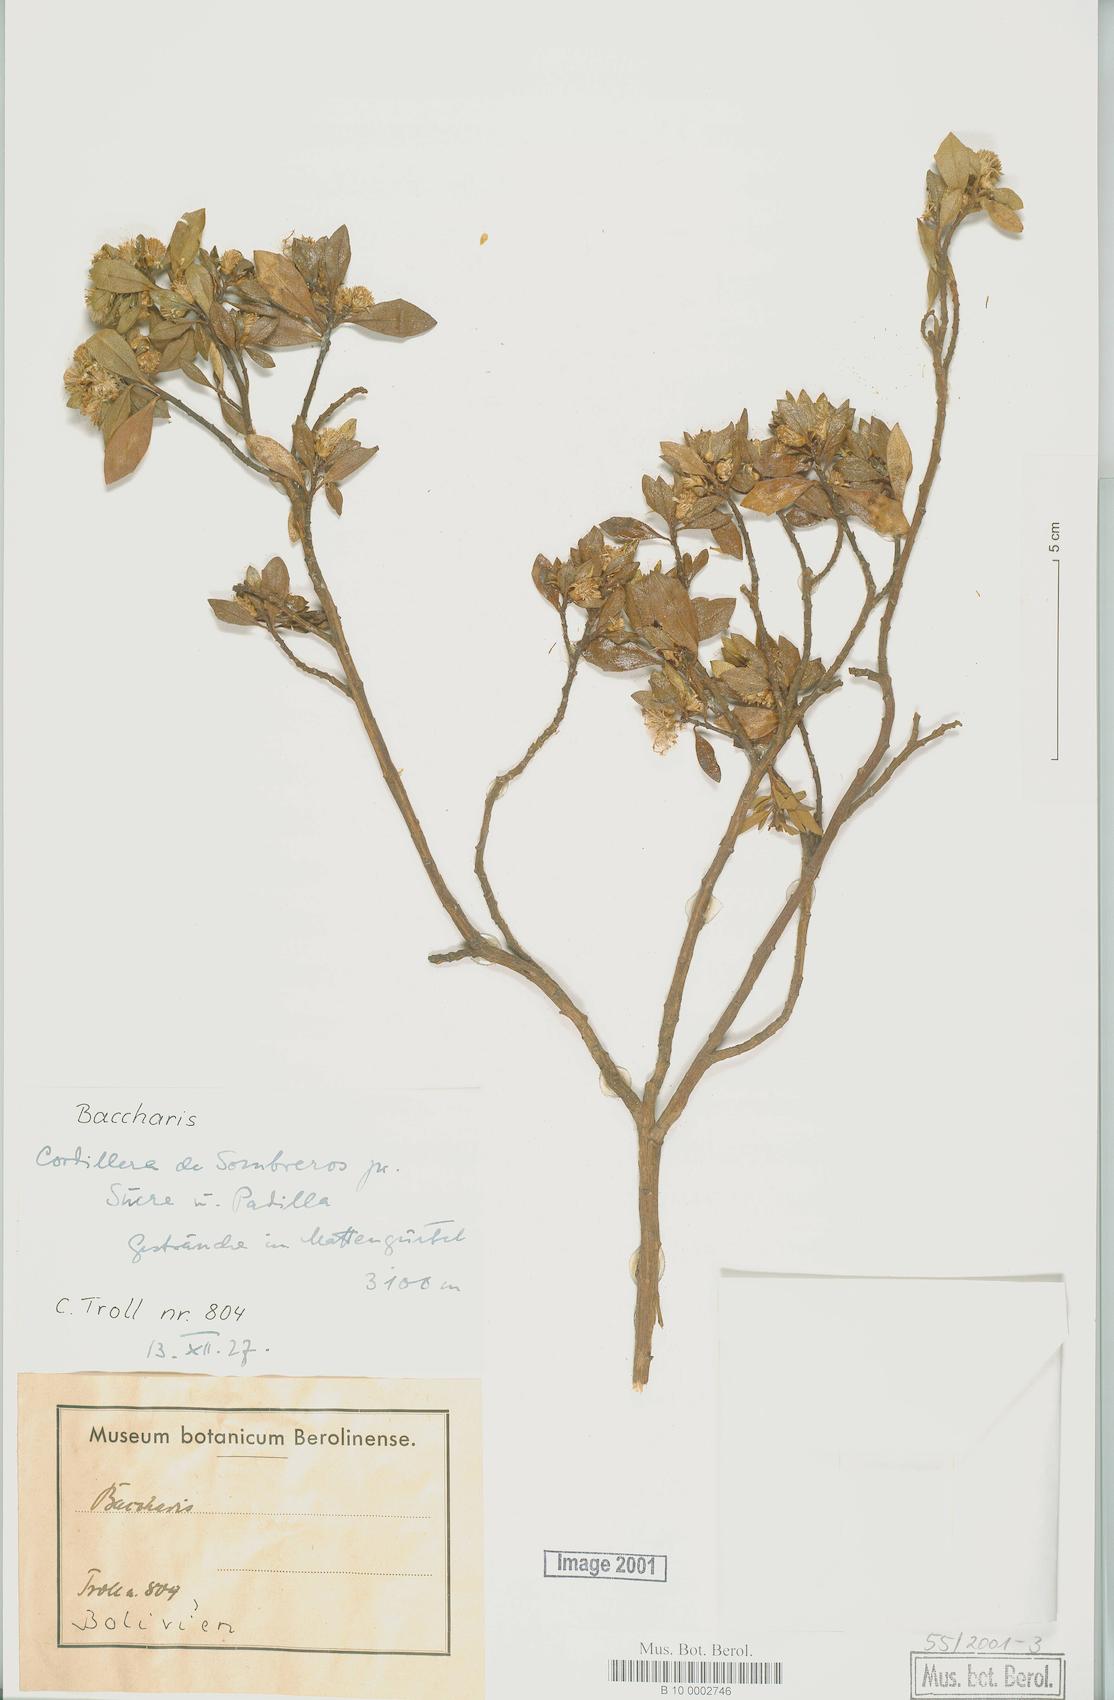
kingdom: Plantae
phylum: Tracheophyta
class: Magnoliopsida
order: Asterales
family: Asteraceae
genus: Baccharis
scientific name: Baccharis
